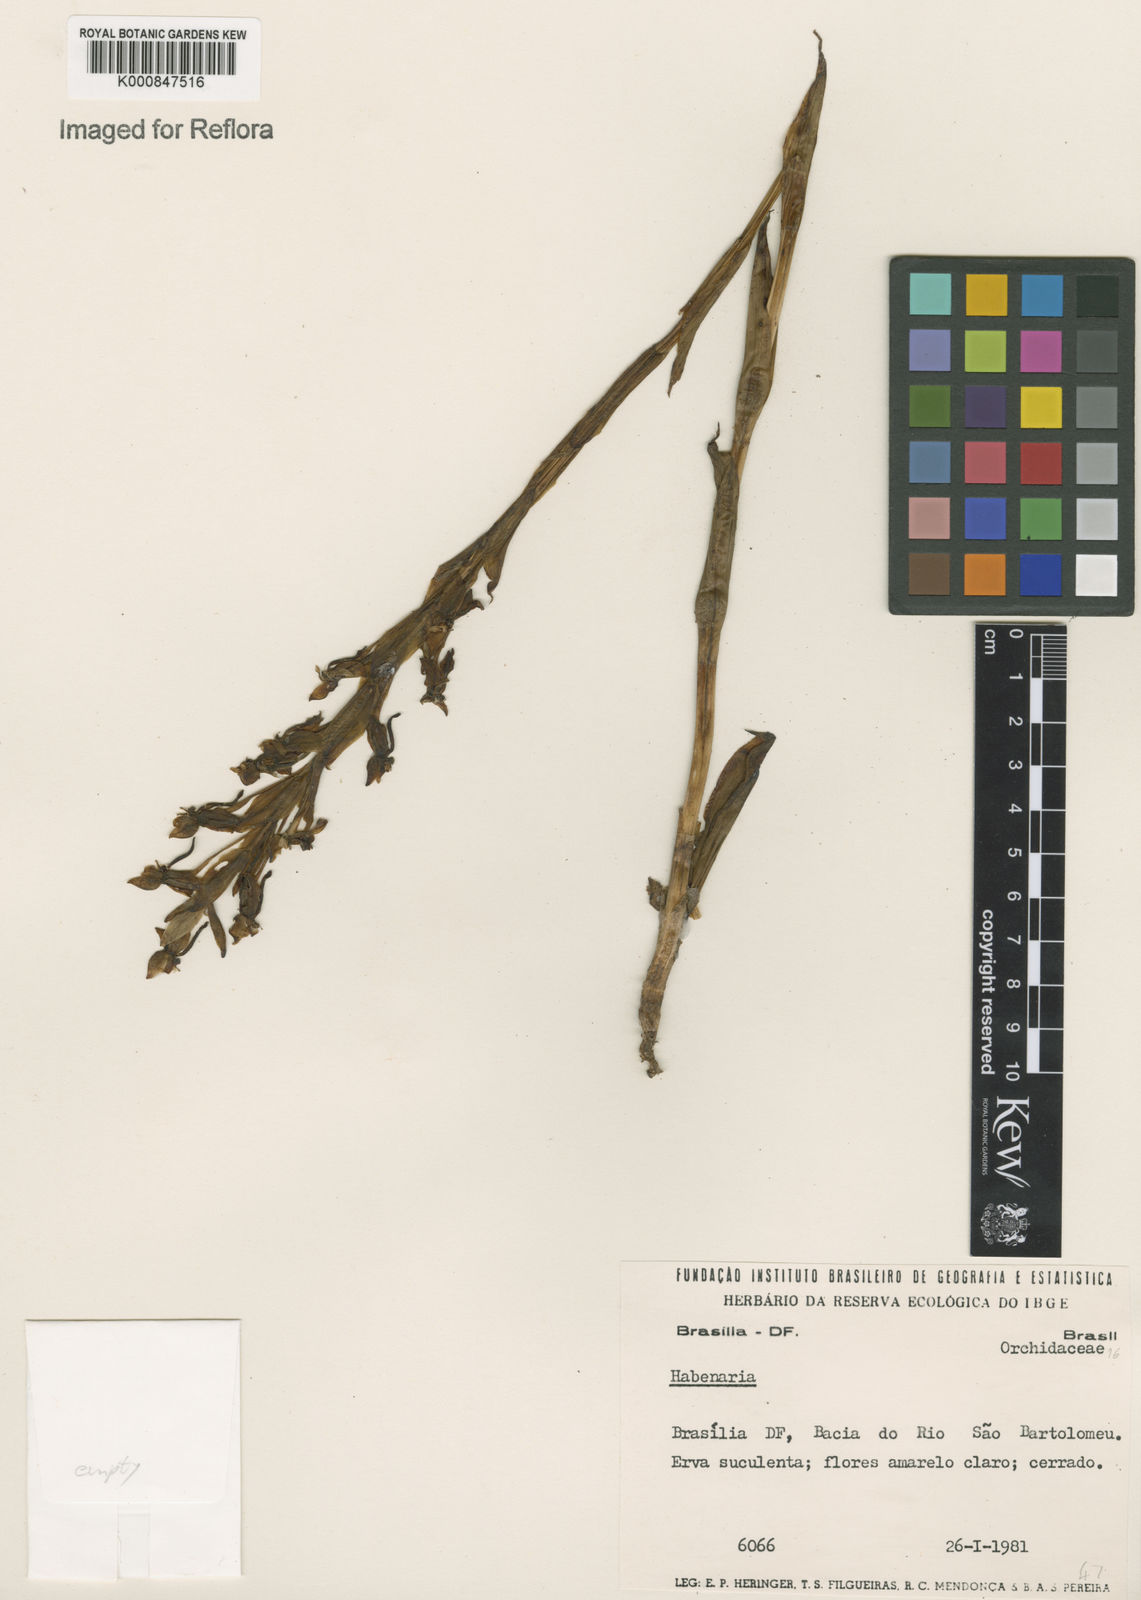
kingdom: Plantae
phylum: Tracheophyta
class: Liliopsida
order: Asparagales
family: Orchidaceae
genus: Habenaria
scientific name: Habenaria
